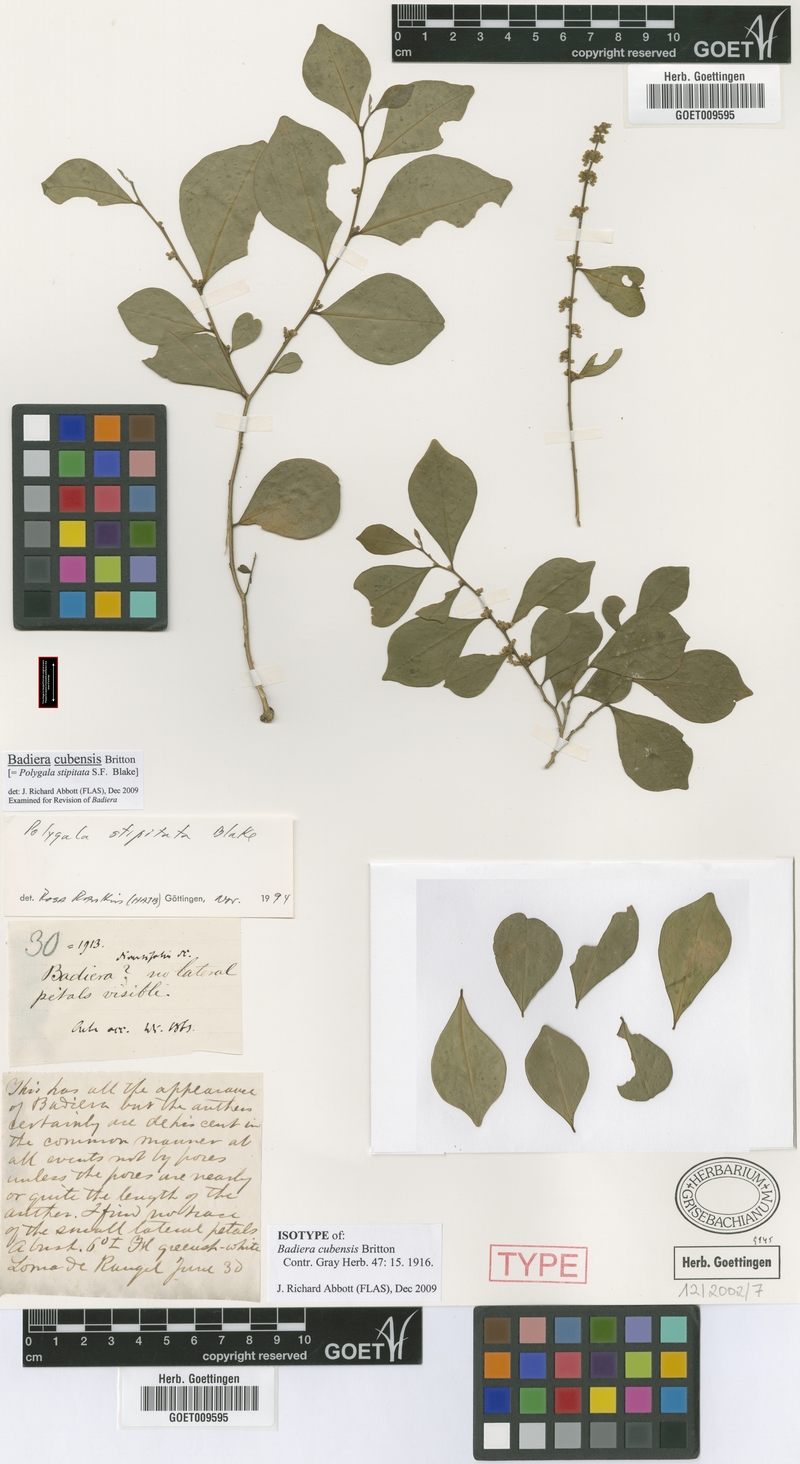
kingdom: Plantae
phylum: Tracheophyta
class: Magnoliopsida
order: Fabales
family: Polygalaceae
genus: Badiera
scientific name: Badiera cubensis
